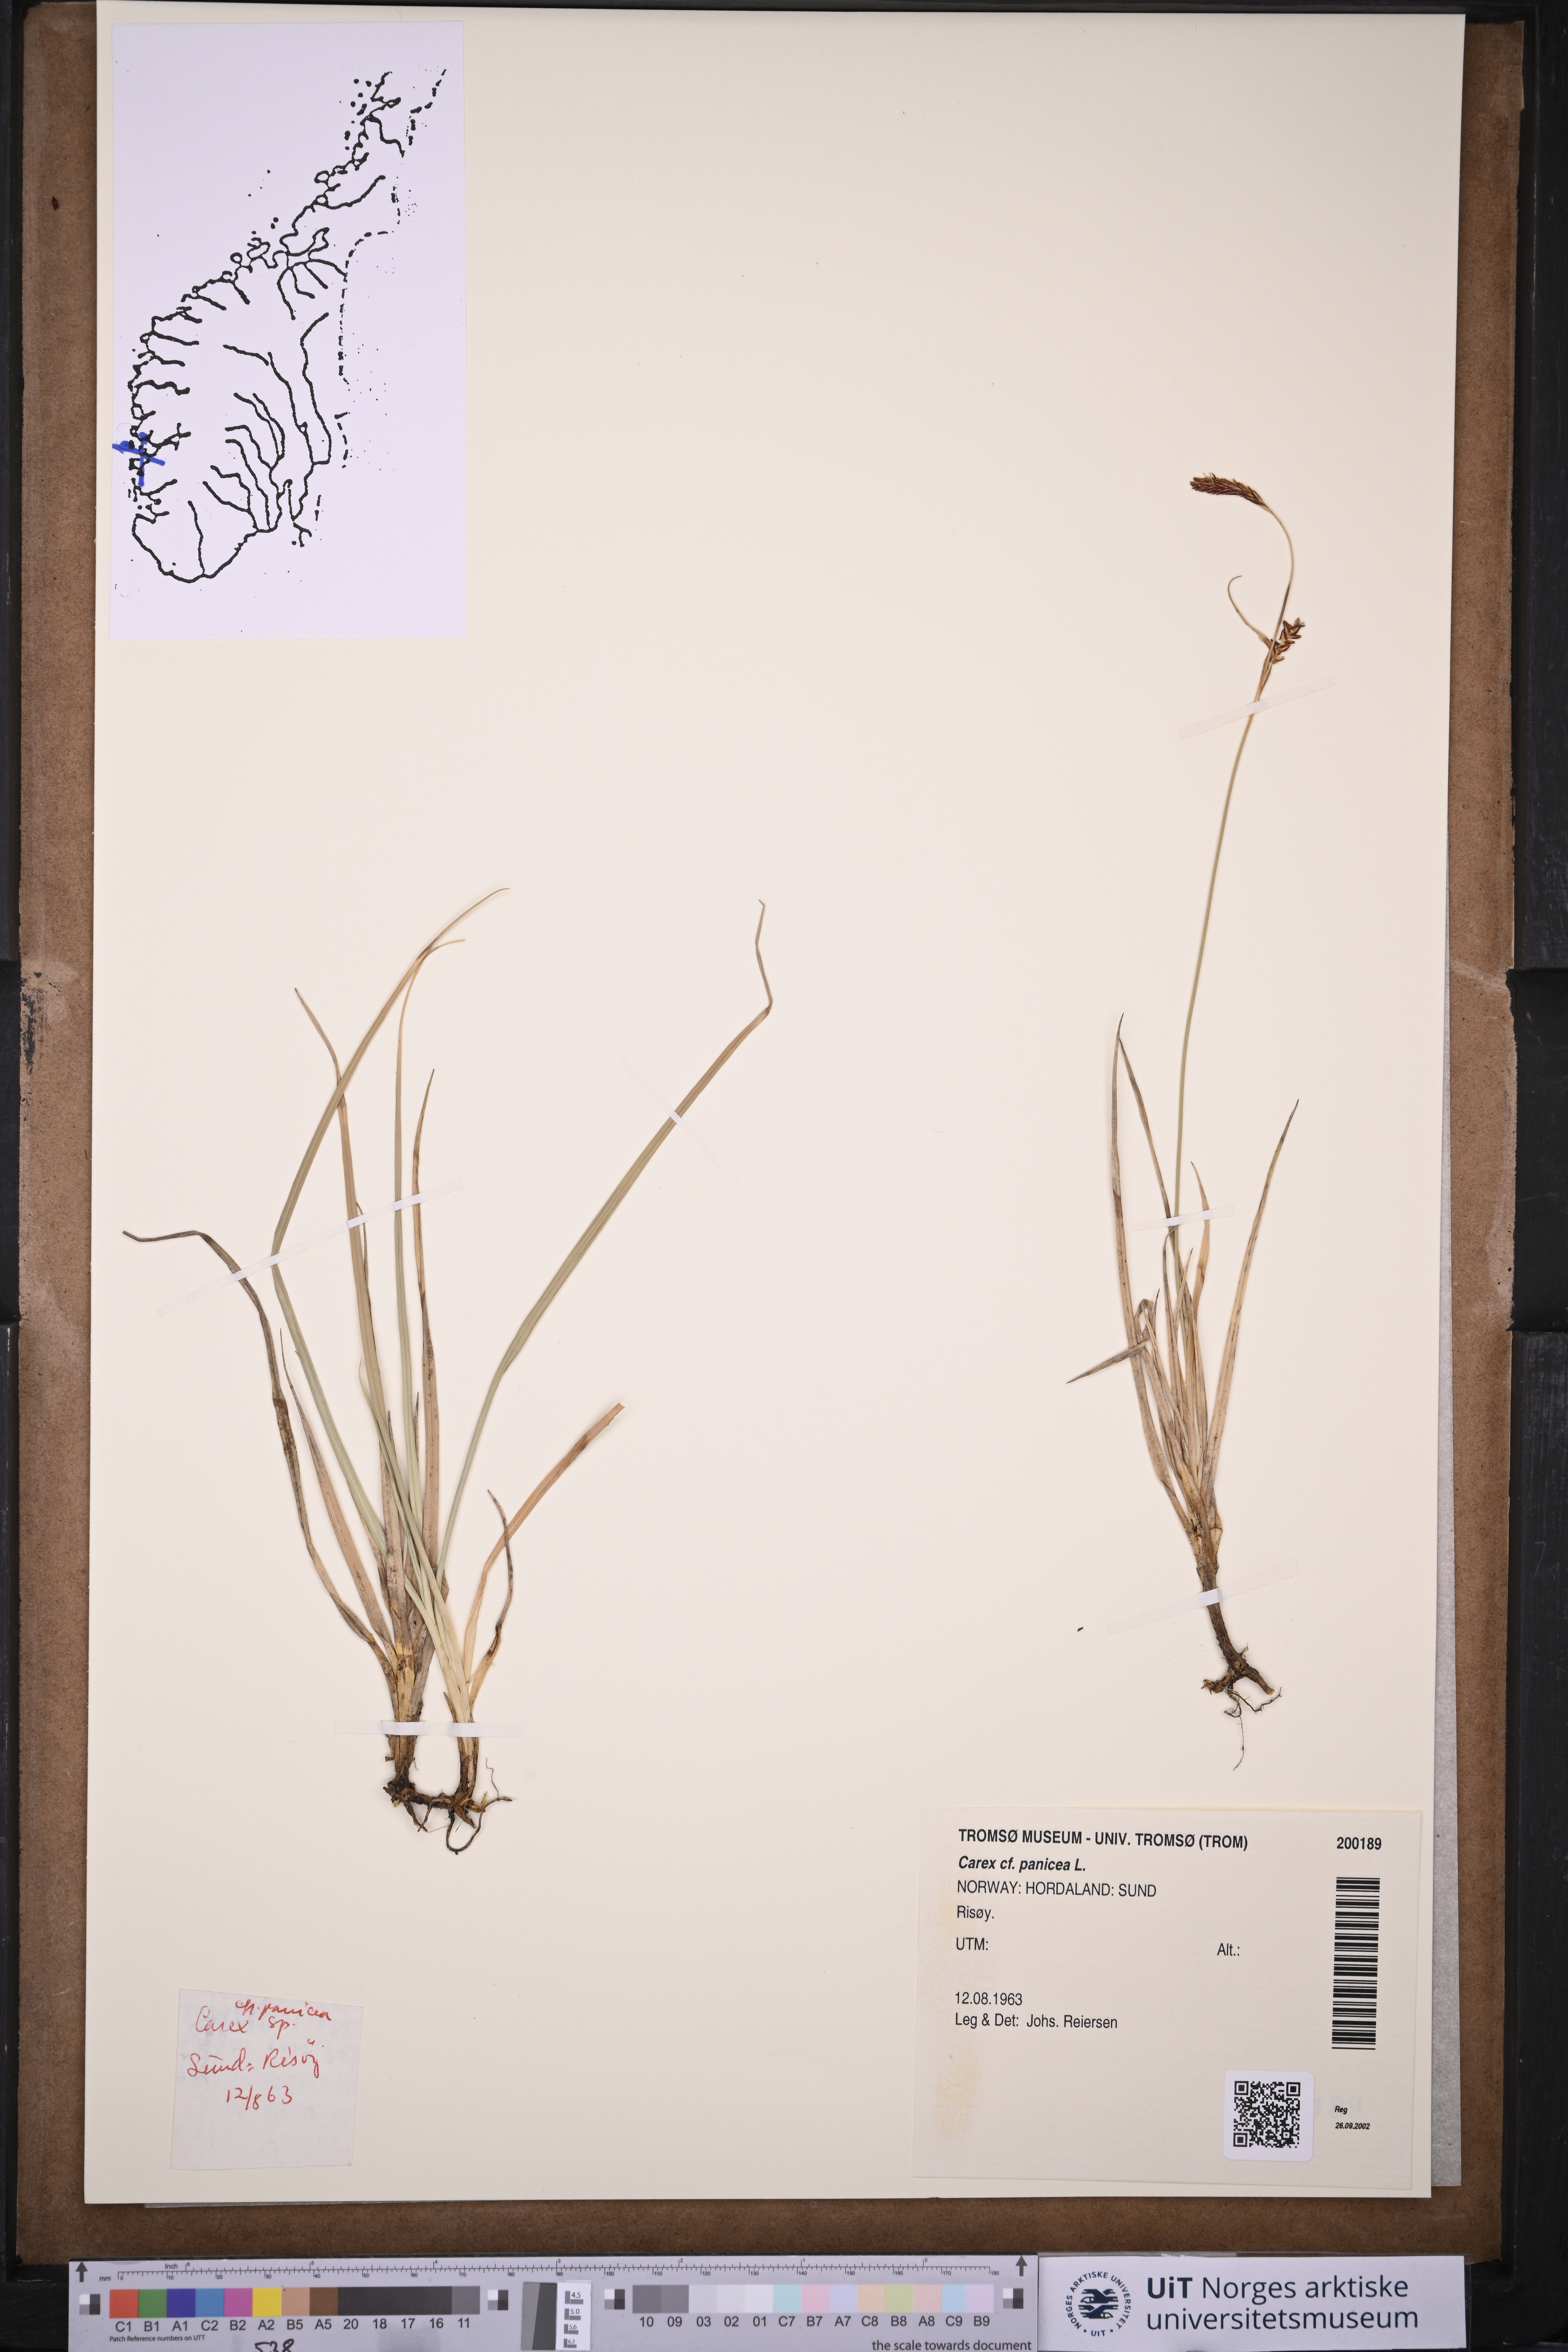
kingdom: Plantae
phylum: Tracheophyta
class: Liliopsida
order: Poales
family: Cyperaceae
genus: Carex
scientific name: Carex panicea
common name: Carnation sedge
